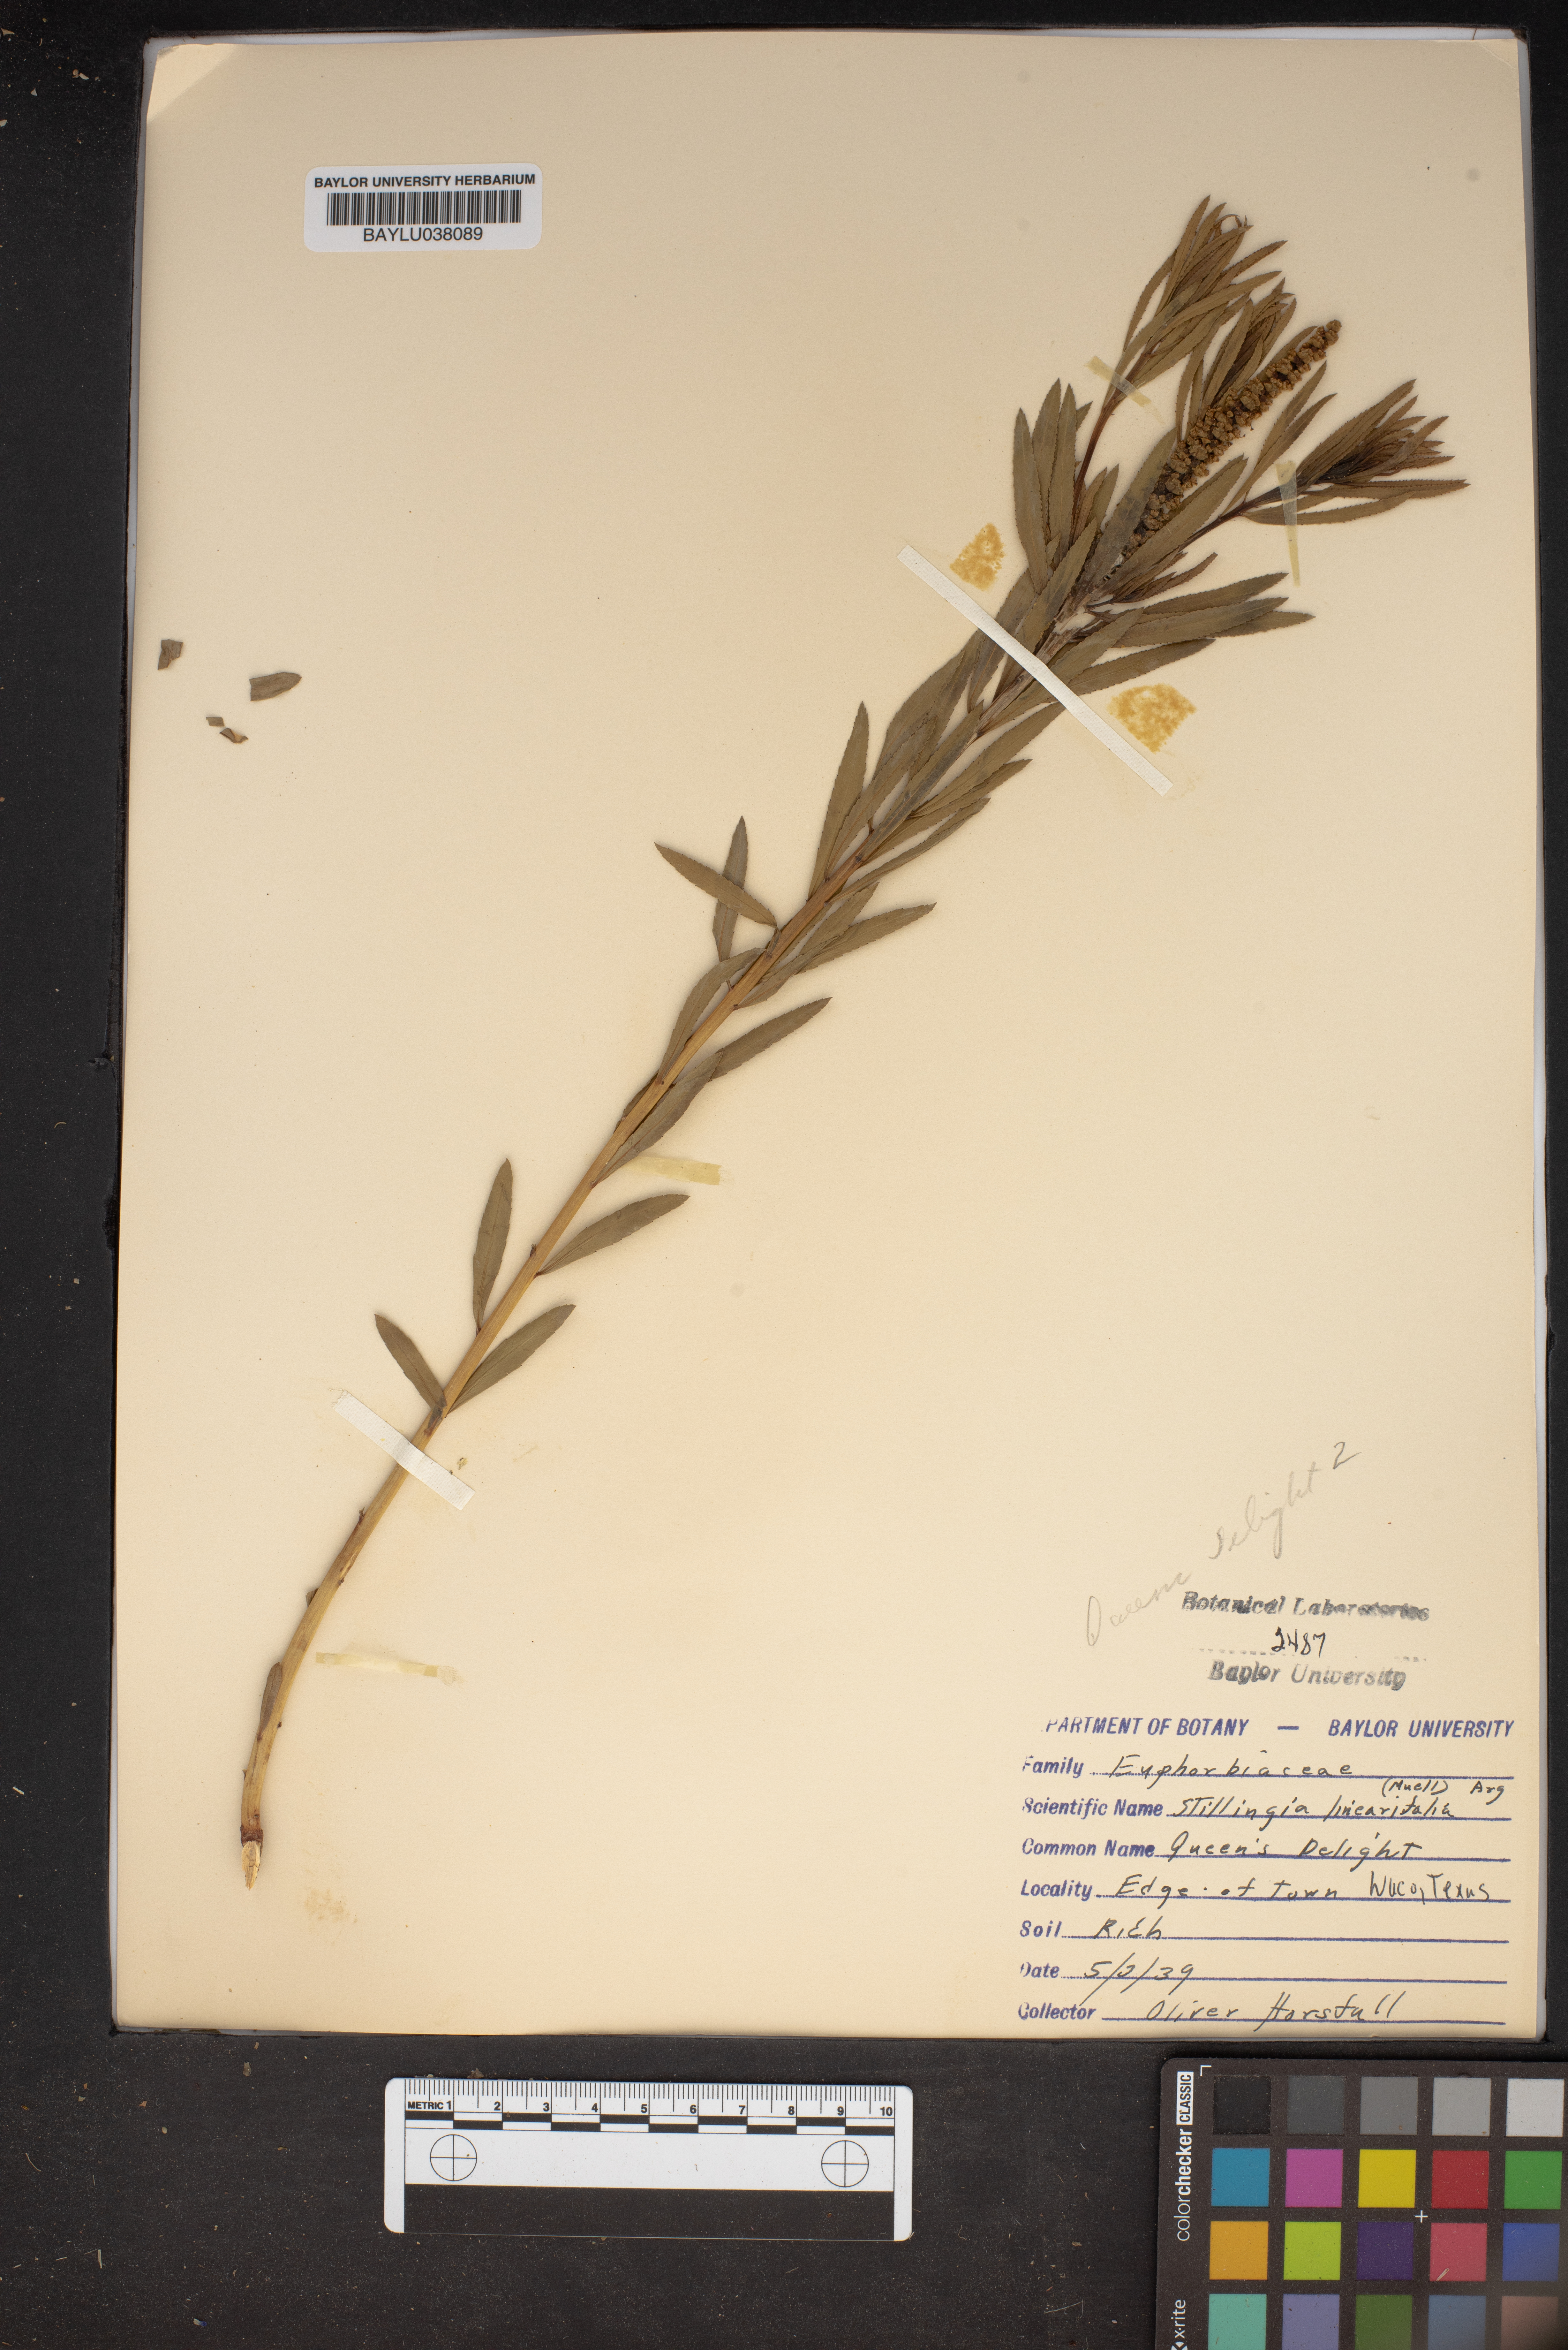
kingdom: Plantae
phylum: Tracheophyta
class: Magnoliopsida
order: Malpighiales
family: Euphorbiaceae
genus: Stillingia
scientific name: Stillingia linearifolia
